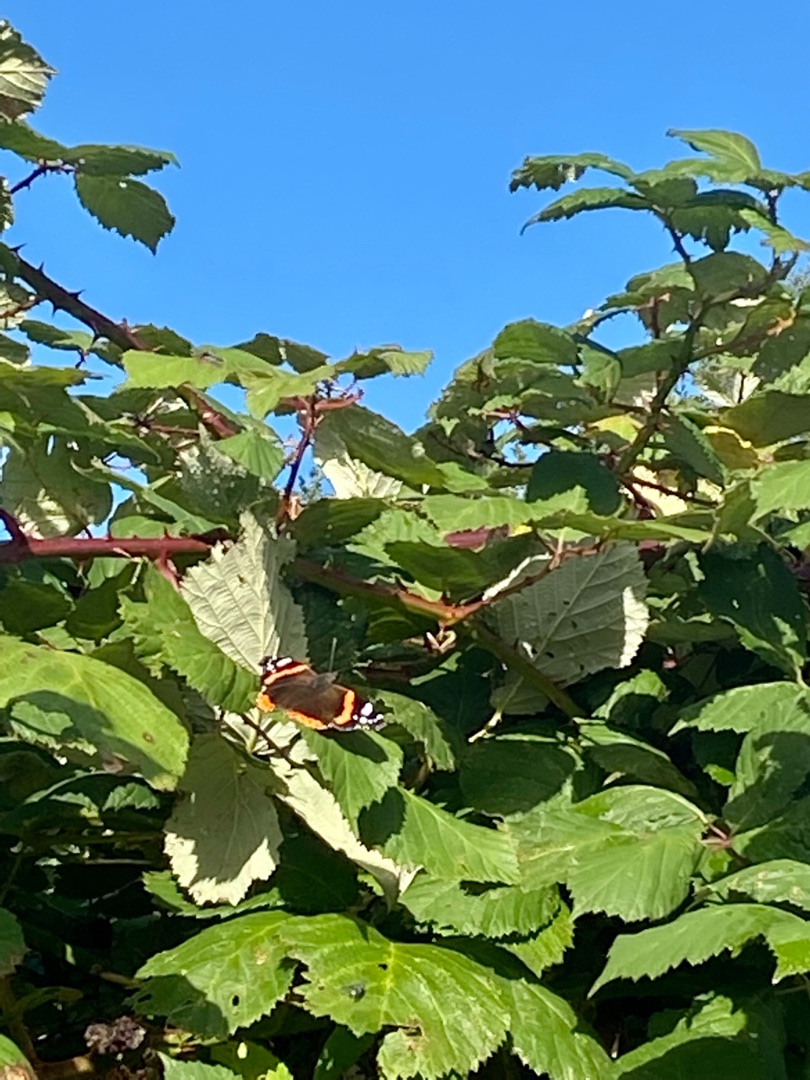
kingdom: Animalia
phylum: Arthropoda
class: Insecta
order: Lepidoptera
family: Nymphalidae
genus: Vanessa
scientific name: Vanessa atalanta
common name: Admiral
